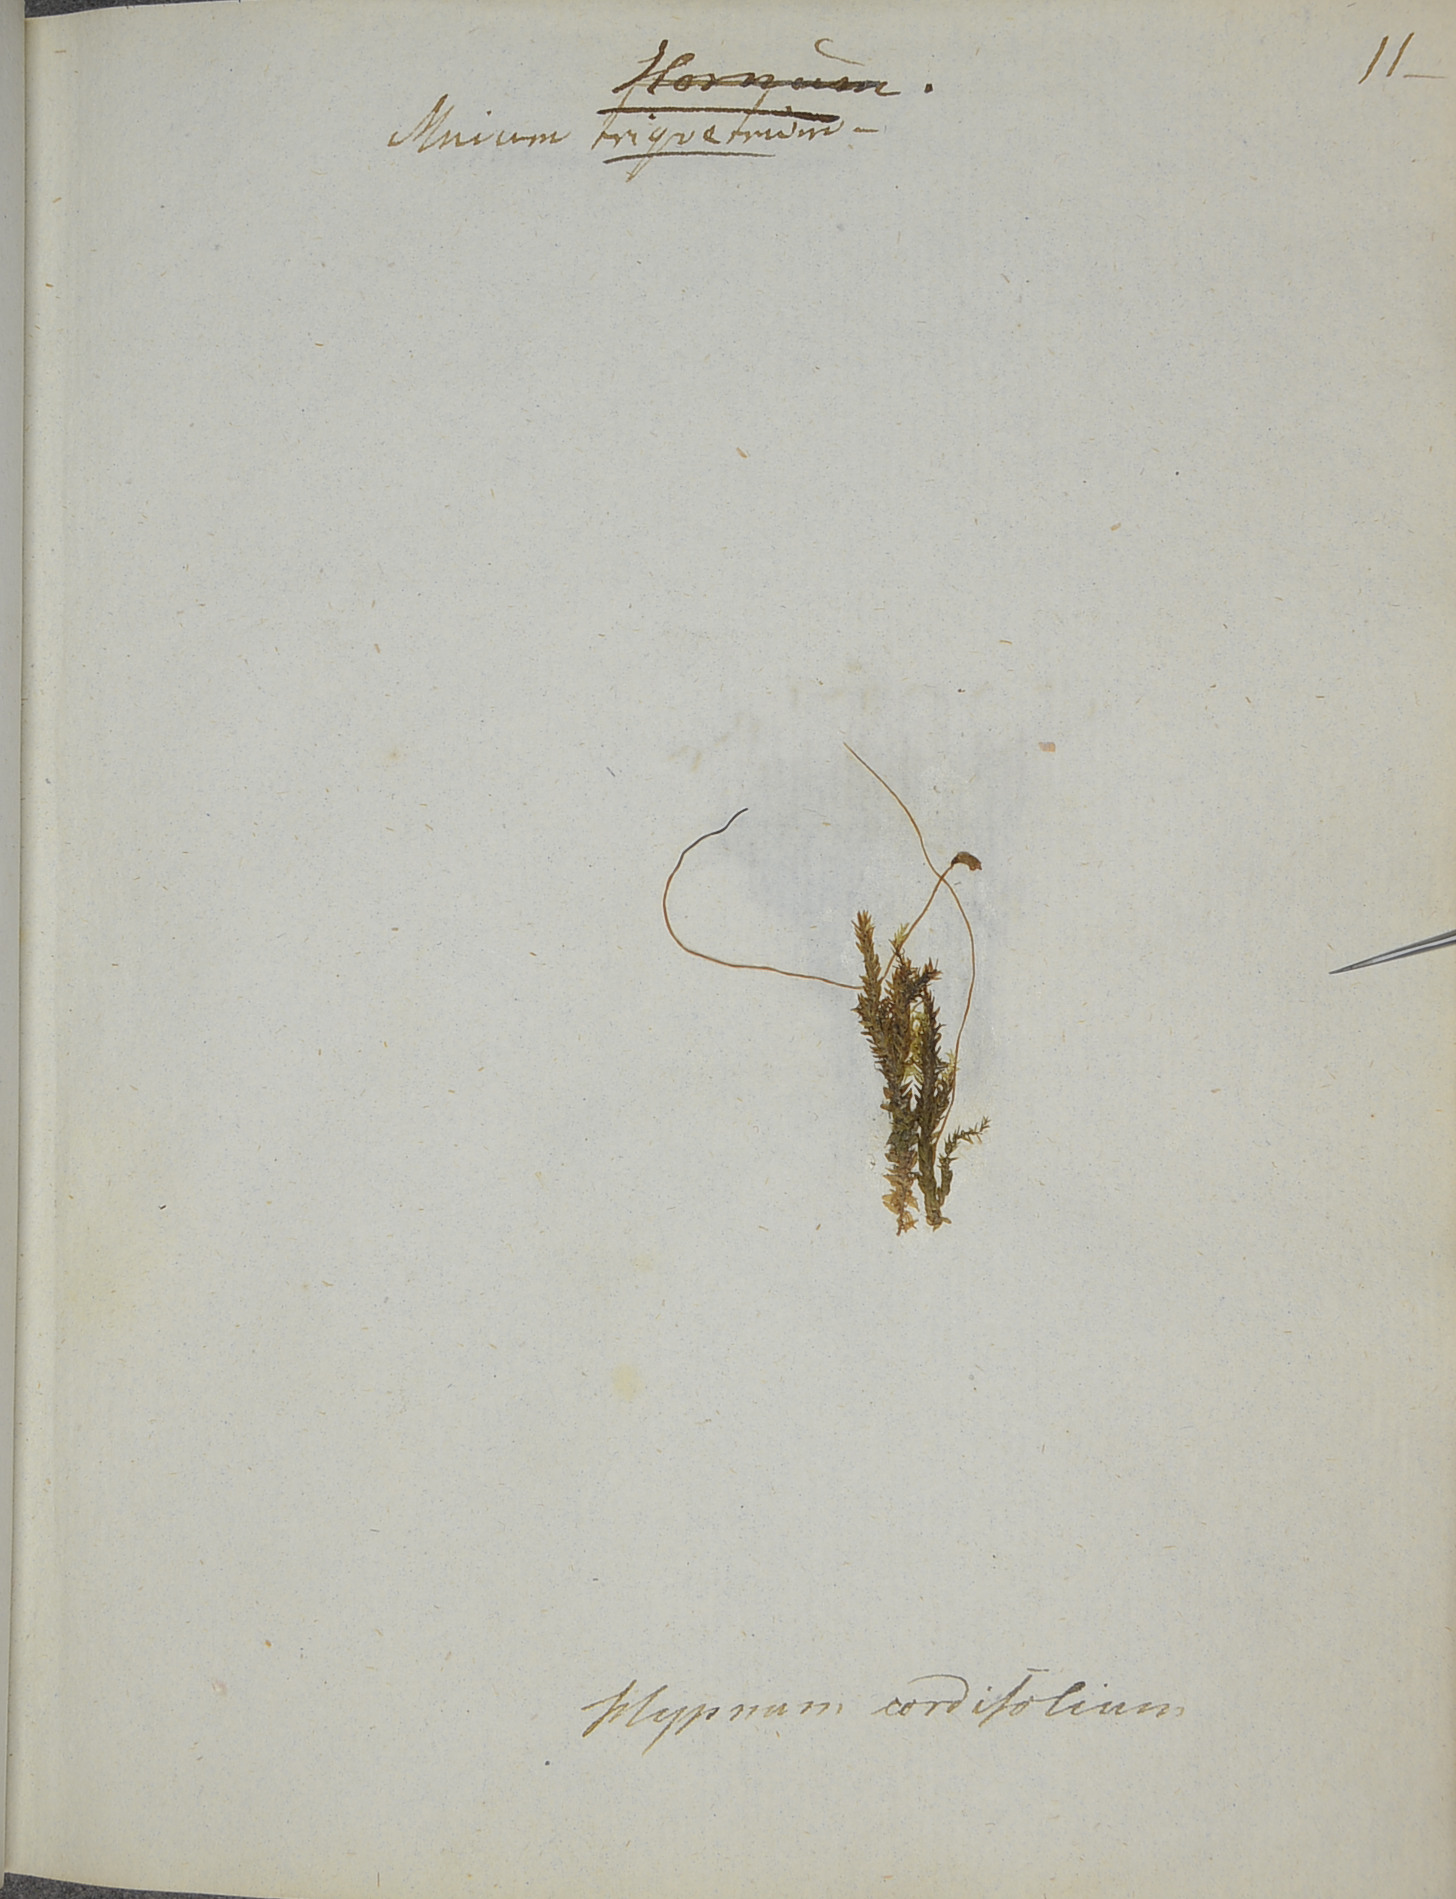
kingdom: Plantae
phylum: Bryophyta
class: Bryopsida
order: Hypnales
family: Calliergonaceae
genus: Straminergon
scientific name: Straminergon stramineum
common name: Straw moss
